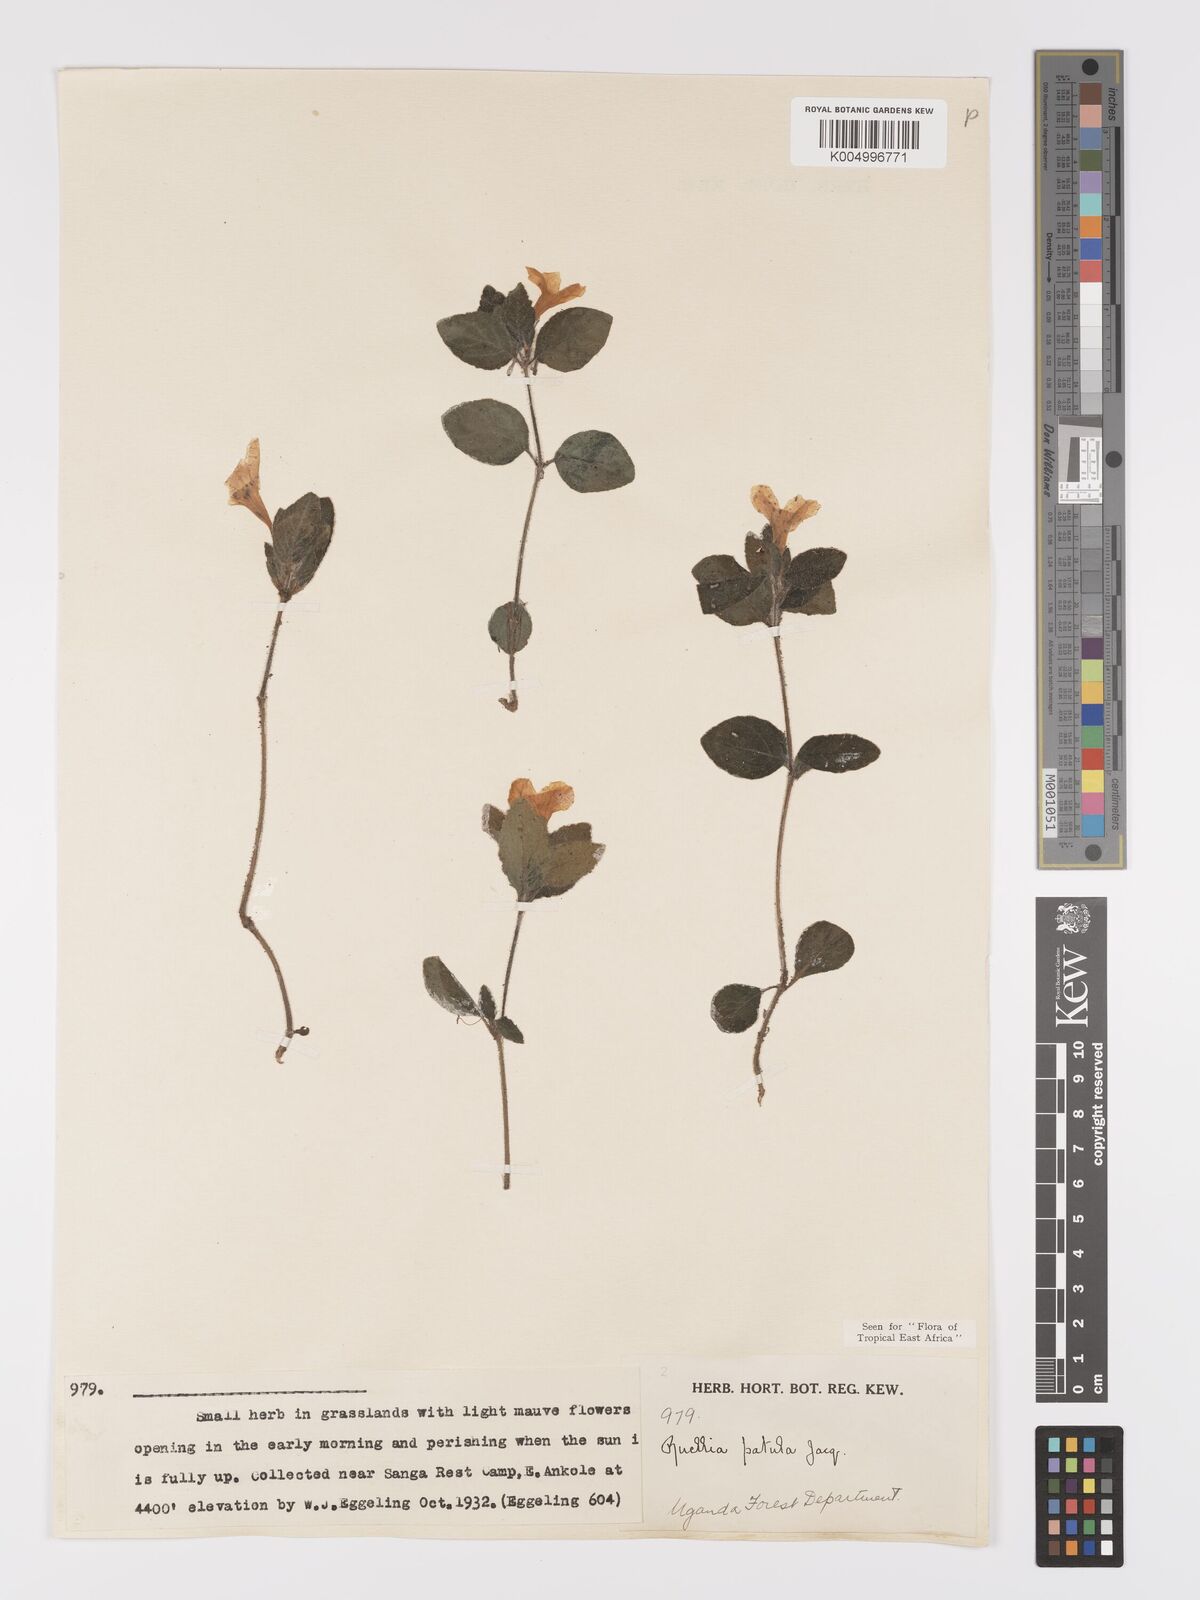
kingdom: Plantae
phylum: Tracheophyta
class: Magnoliopsida
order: Lamiales
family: Acanthaceae
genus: Ruellia
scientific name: Ruellia patula
